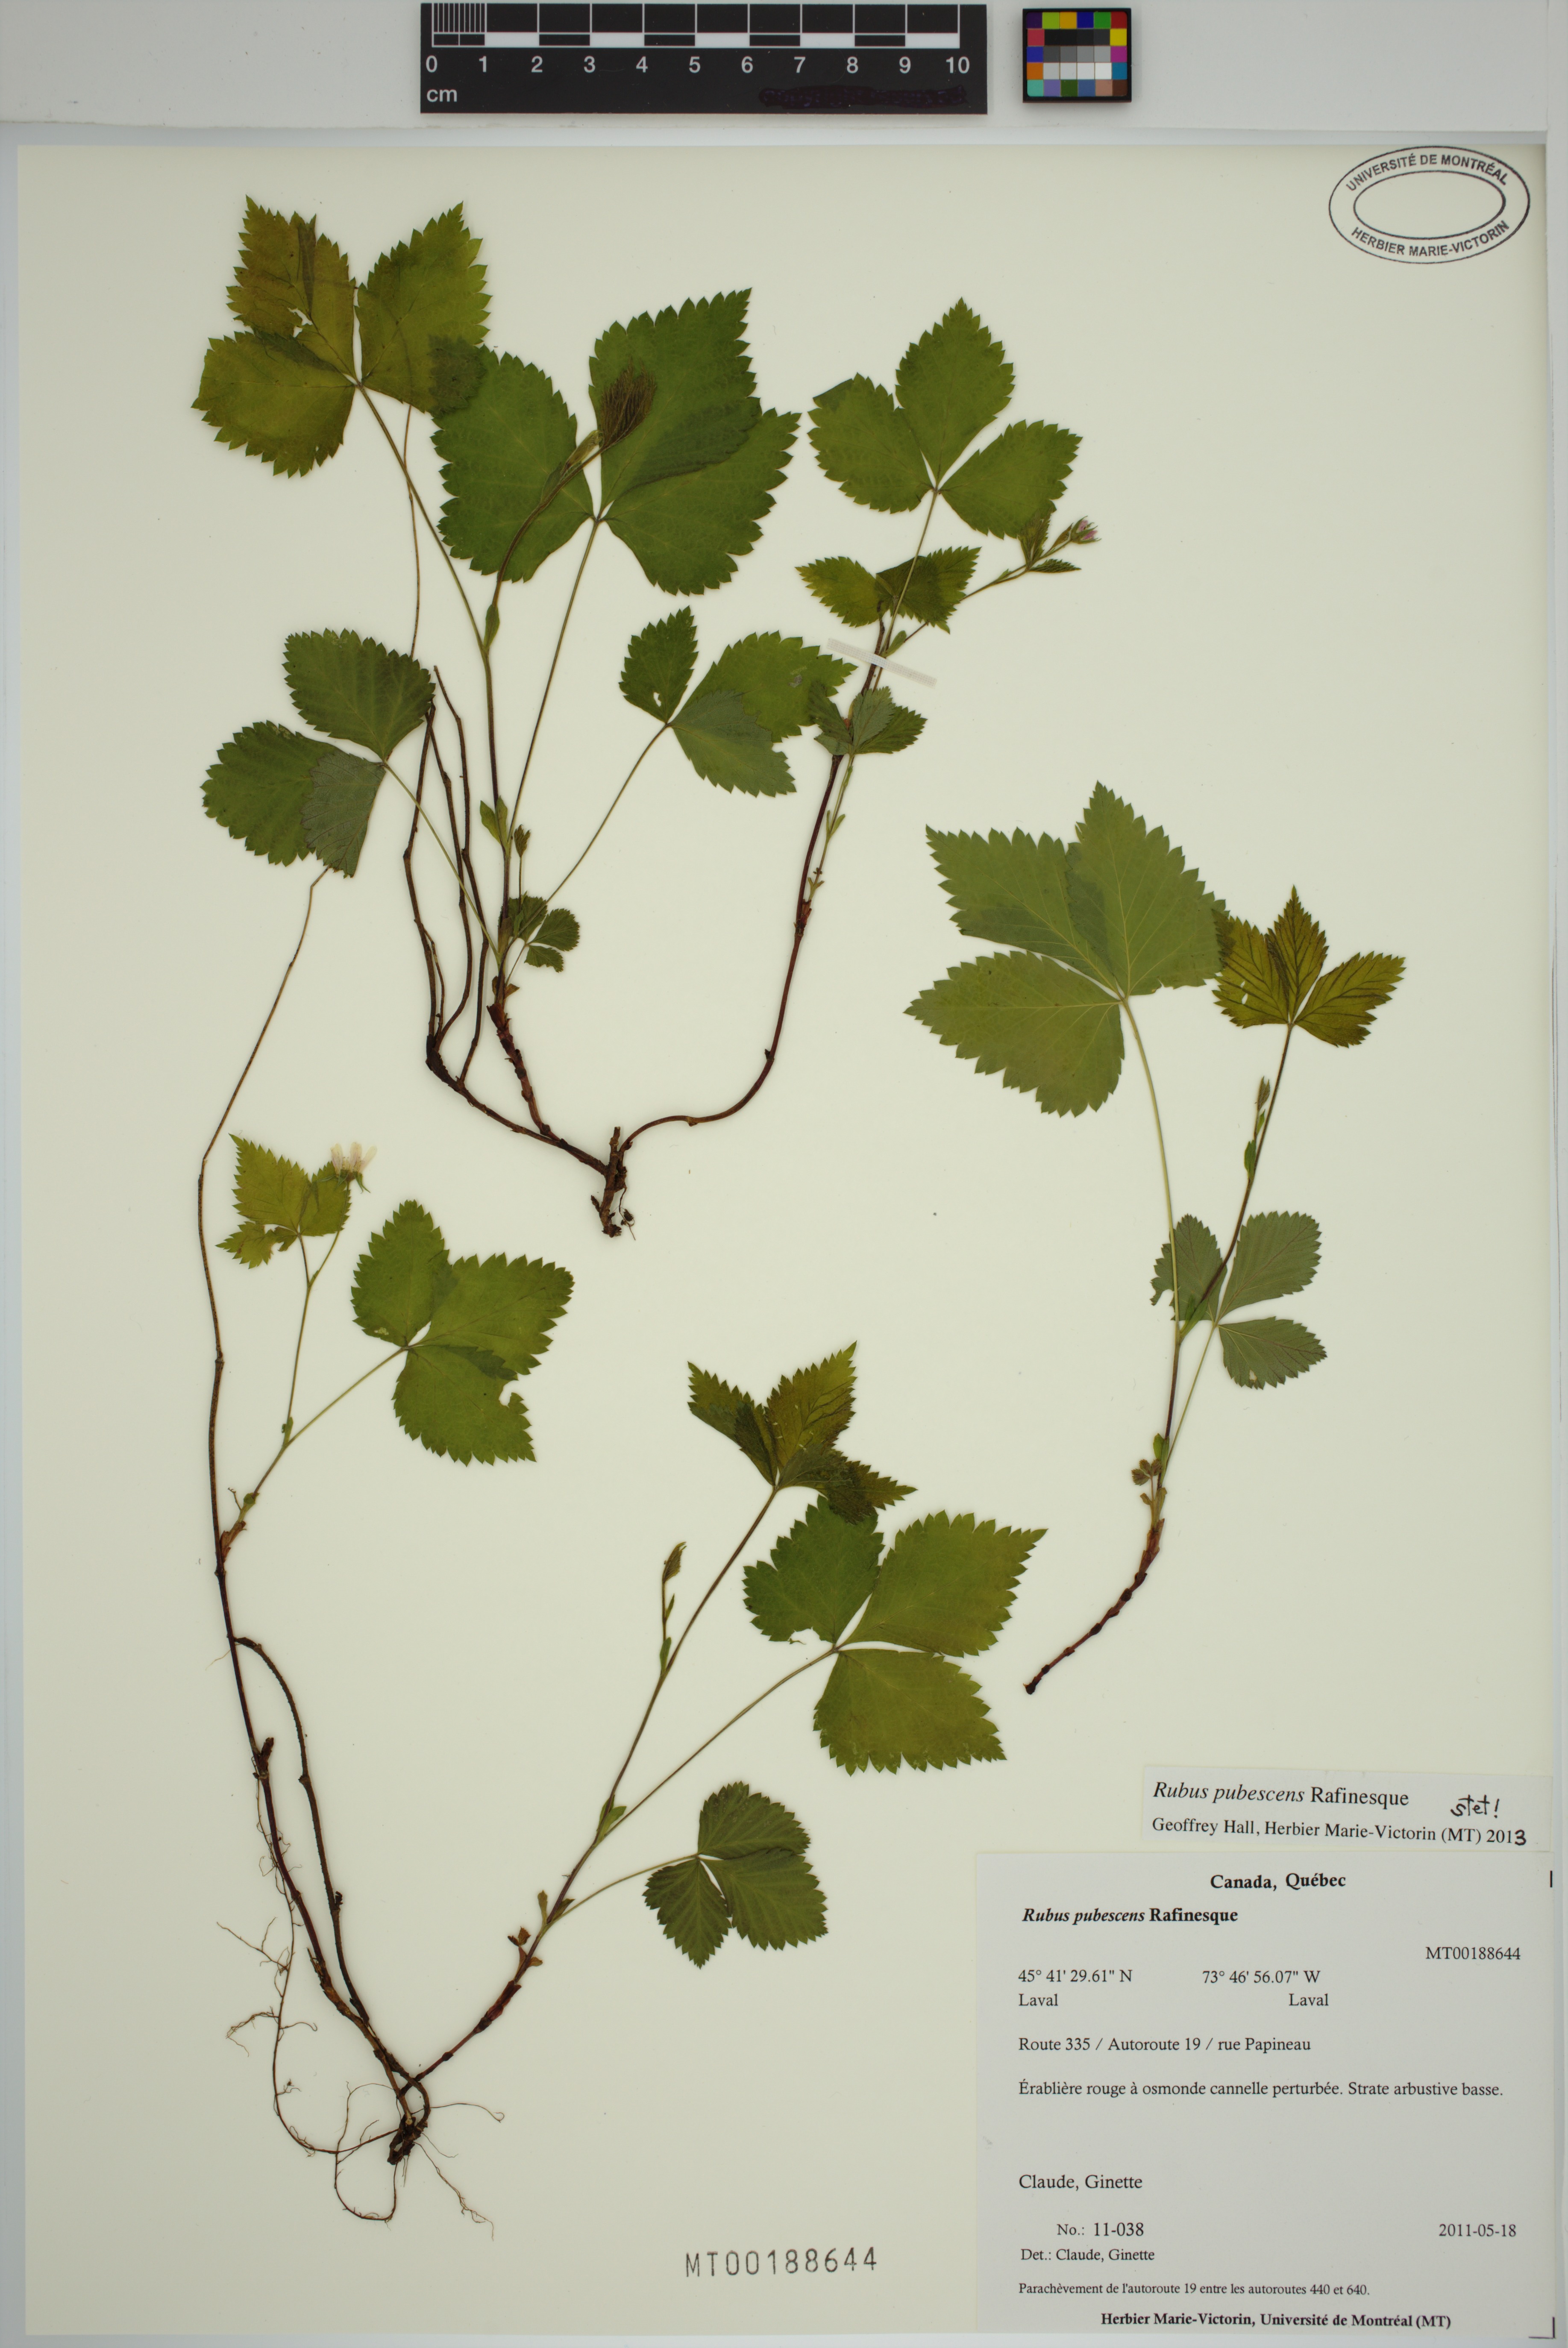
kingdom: Plantae
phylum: Tracheophyta
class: Magnoliopsida
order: Rosales
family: Rosaceae
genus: Rubus
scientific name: Rubus pubescens
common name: Dwarf raspberry
